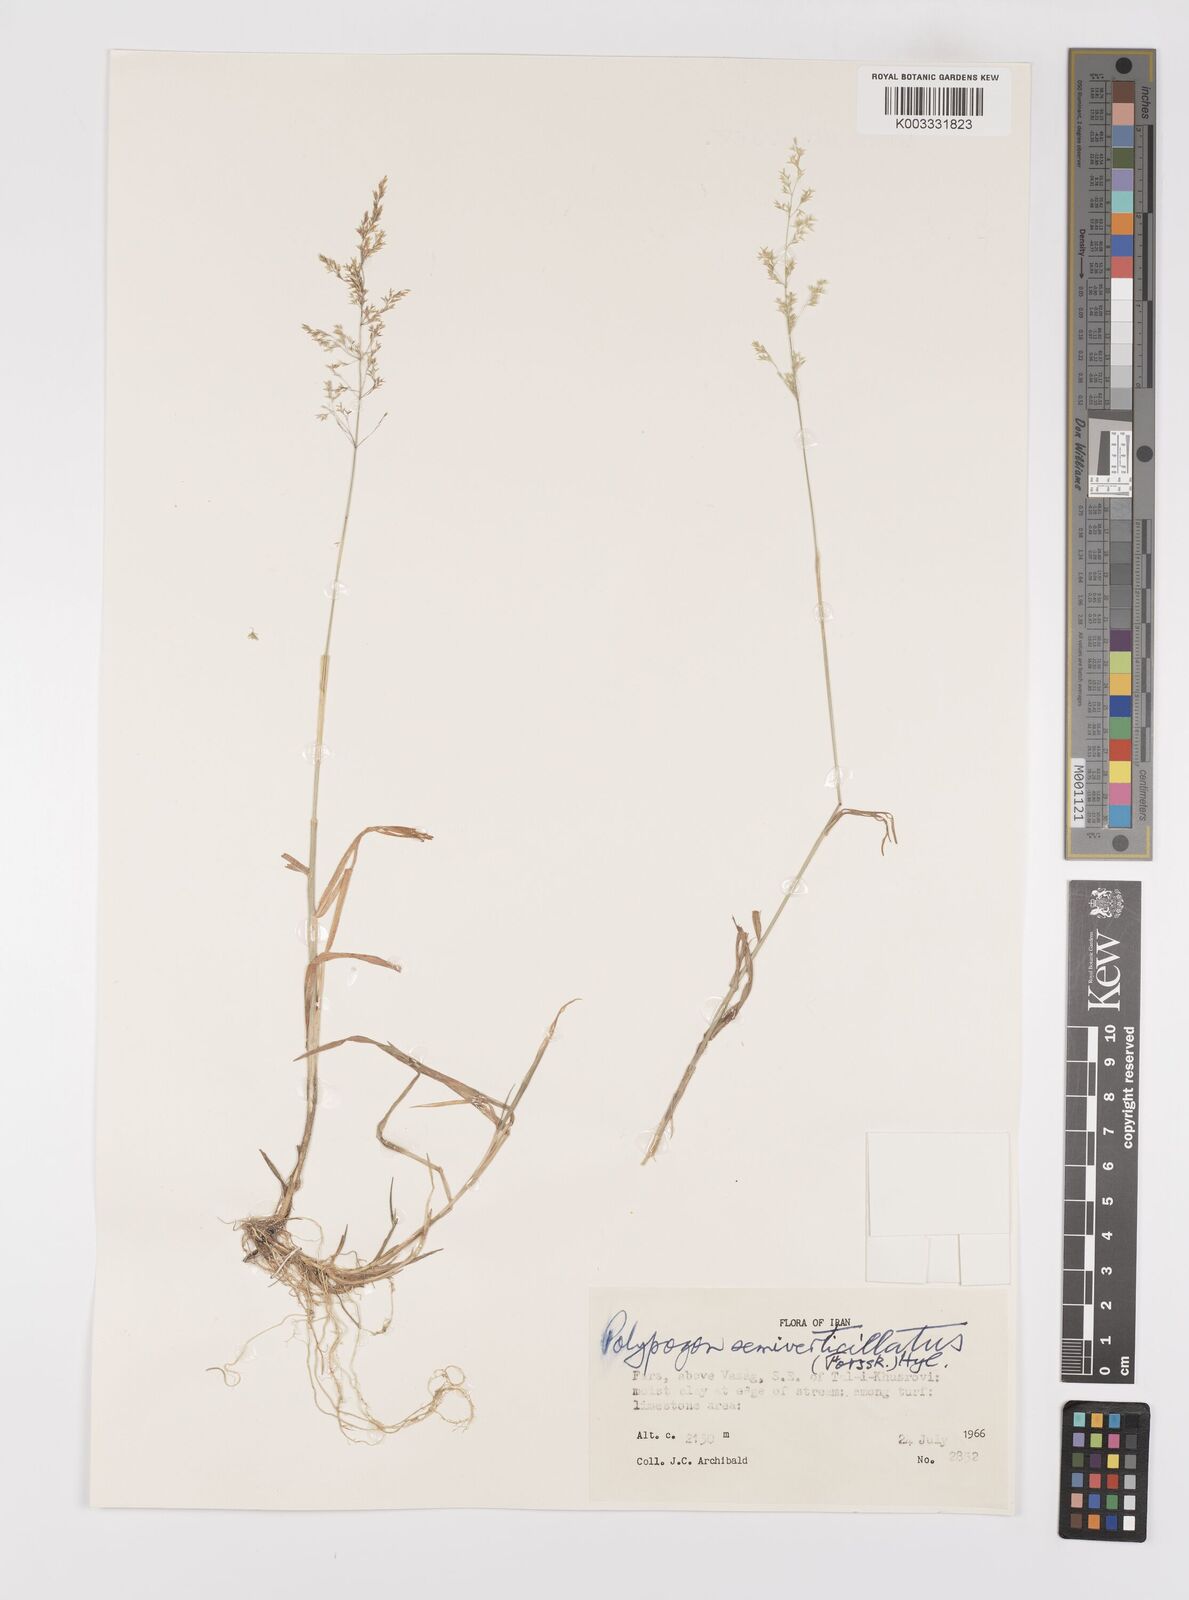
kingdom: Plantae
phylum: Tracheophyta
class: Liliopsida
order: Poales
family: Poaceae
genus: Polypogon
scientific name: Polypogon viridis
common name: Water bent
